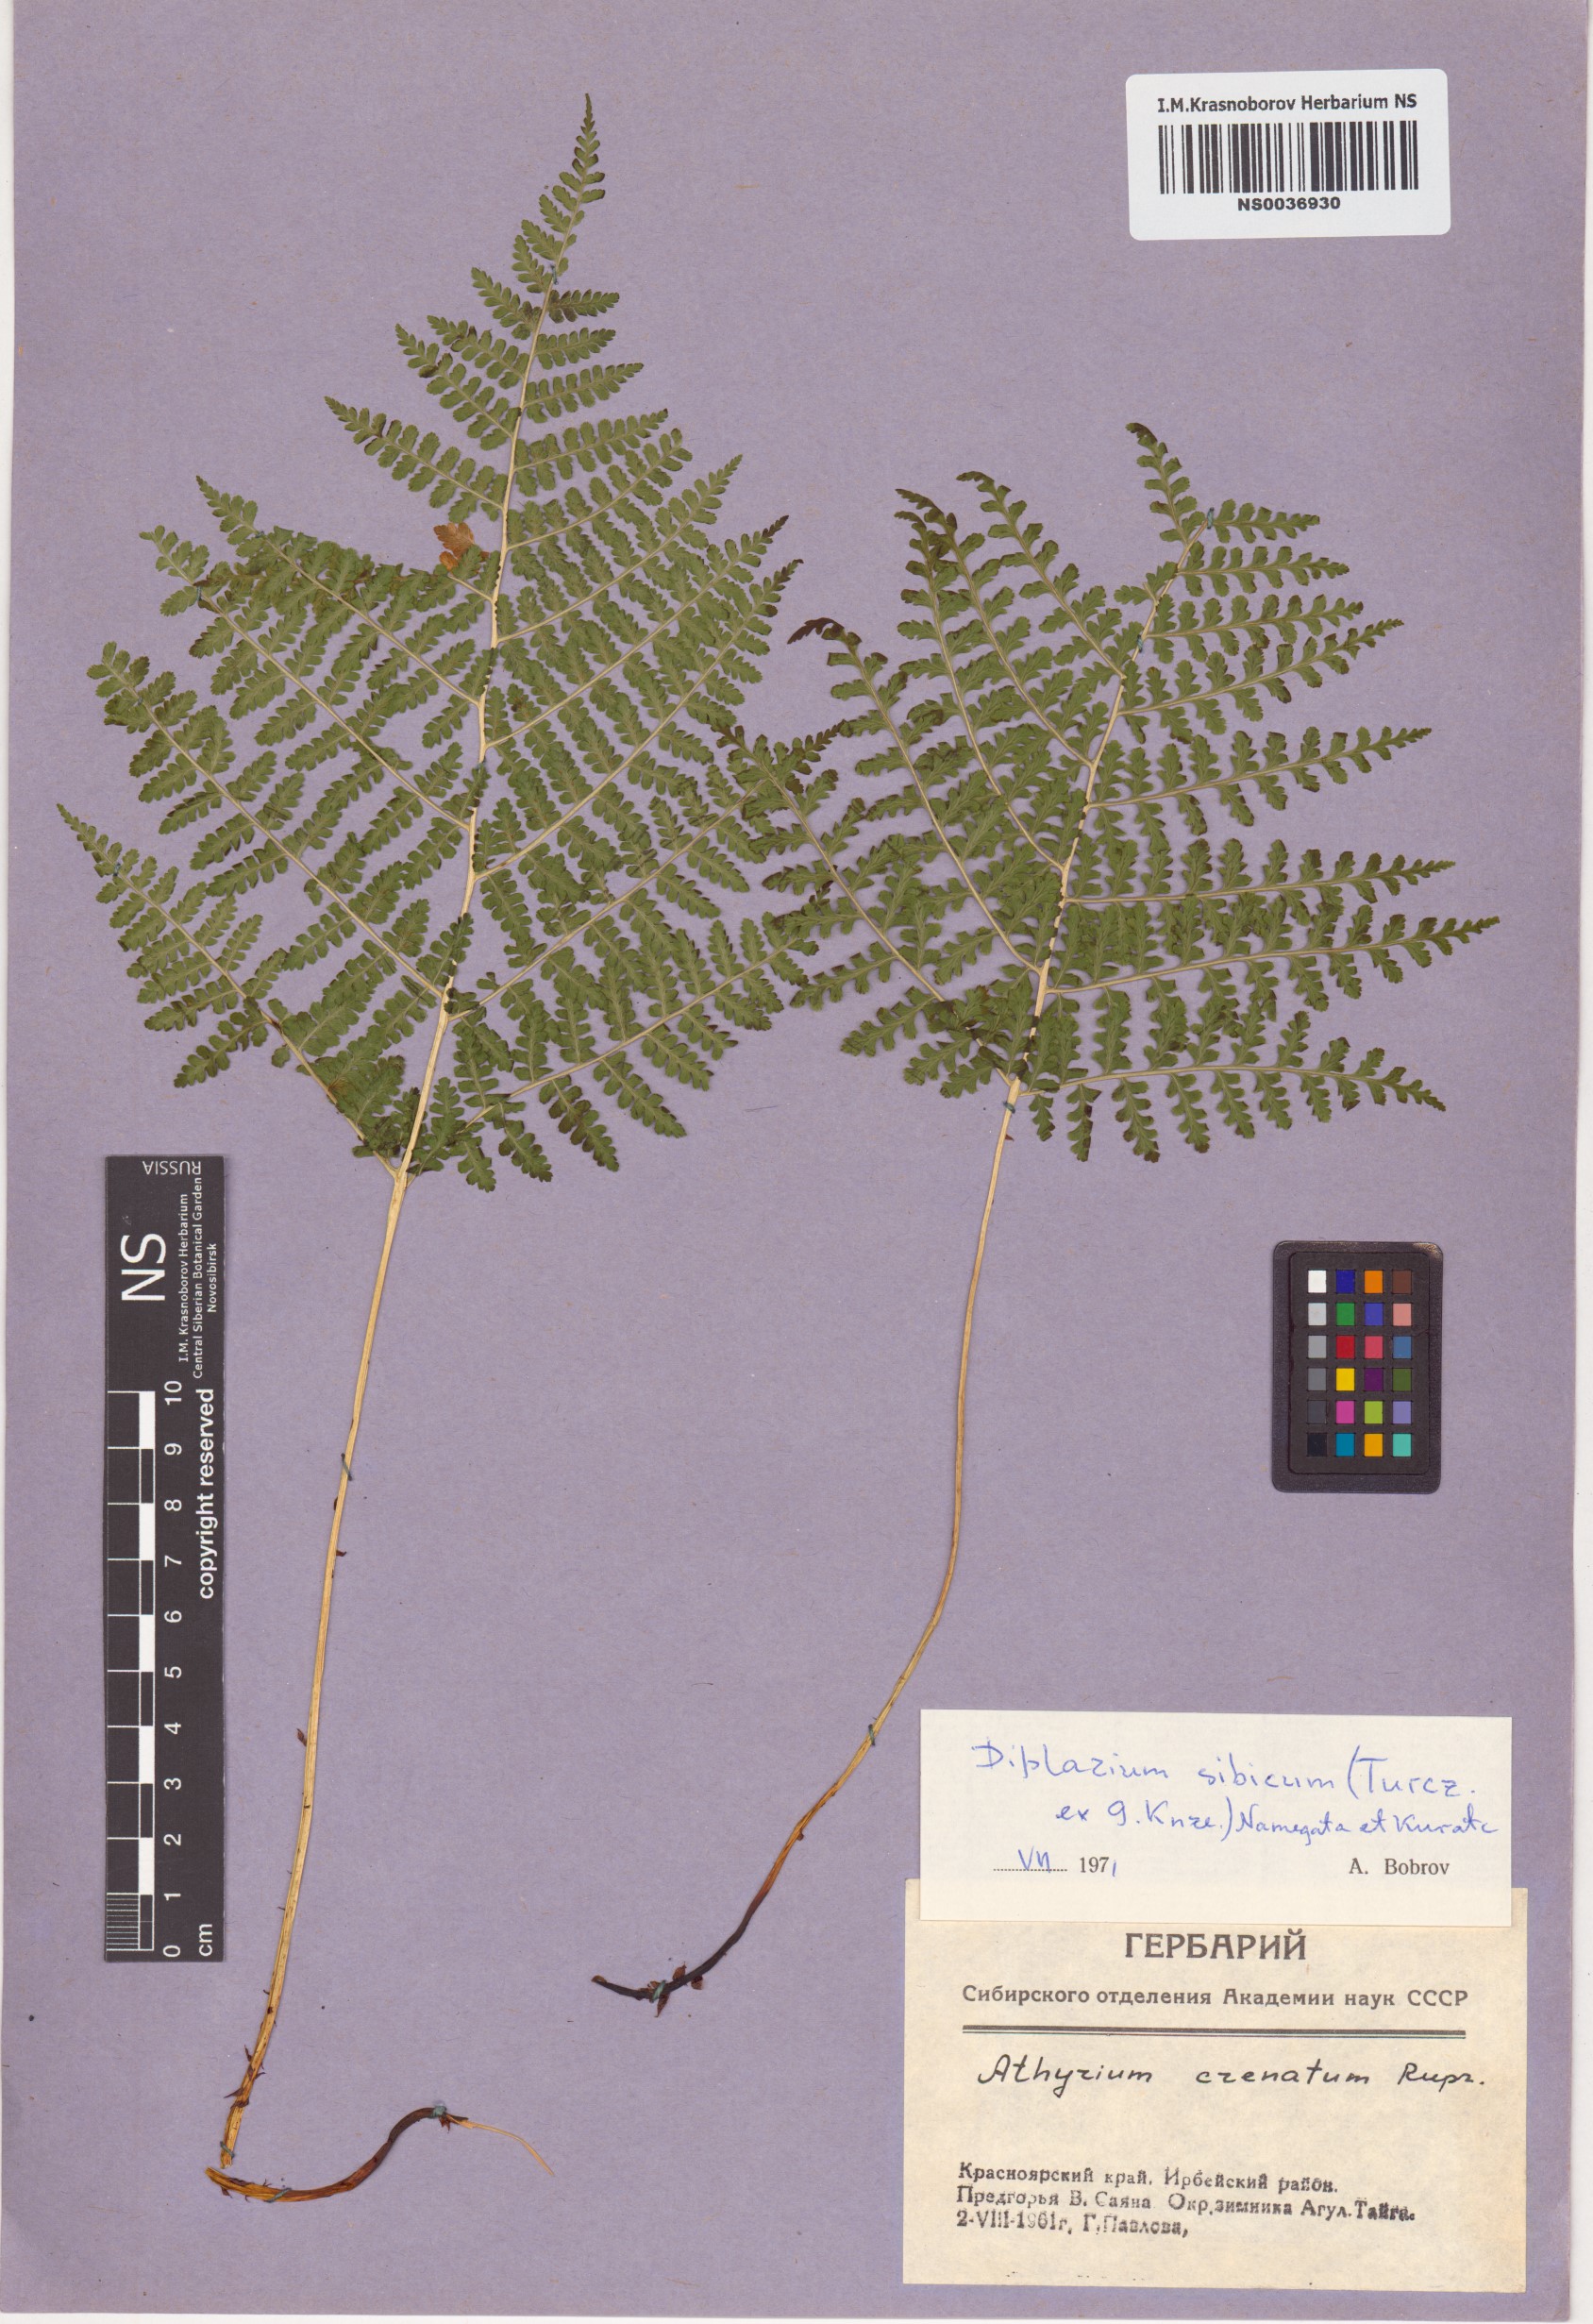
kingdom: Plantae
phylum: Tracheophyta
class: Polypodiopsida
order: Polypodiales
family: Athyriaceae
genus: Diplazium
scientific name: Diplazium sibiricum
